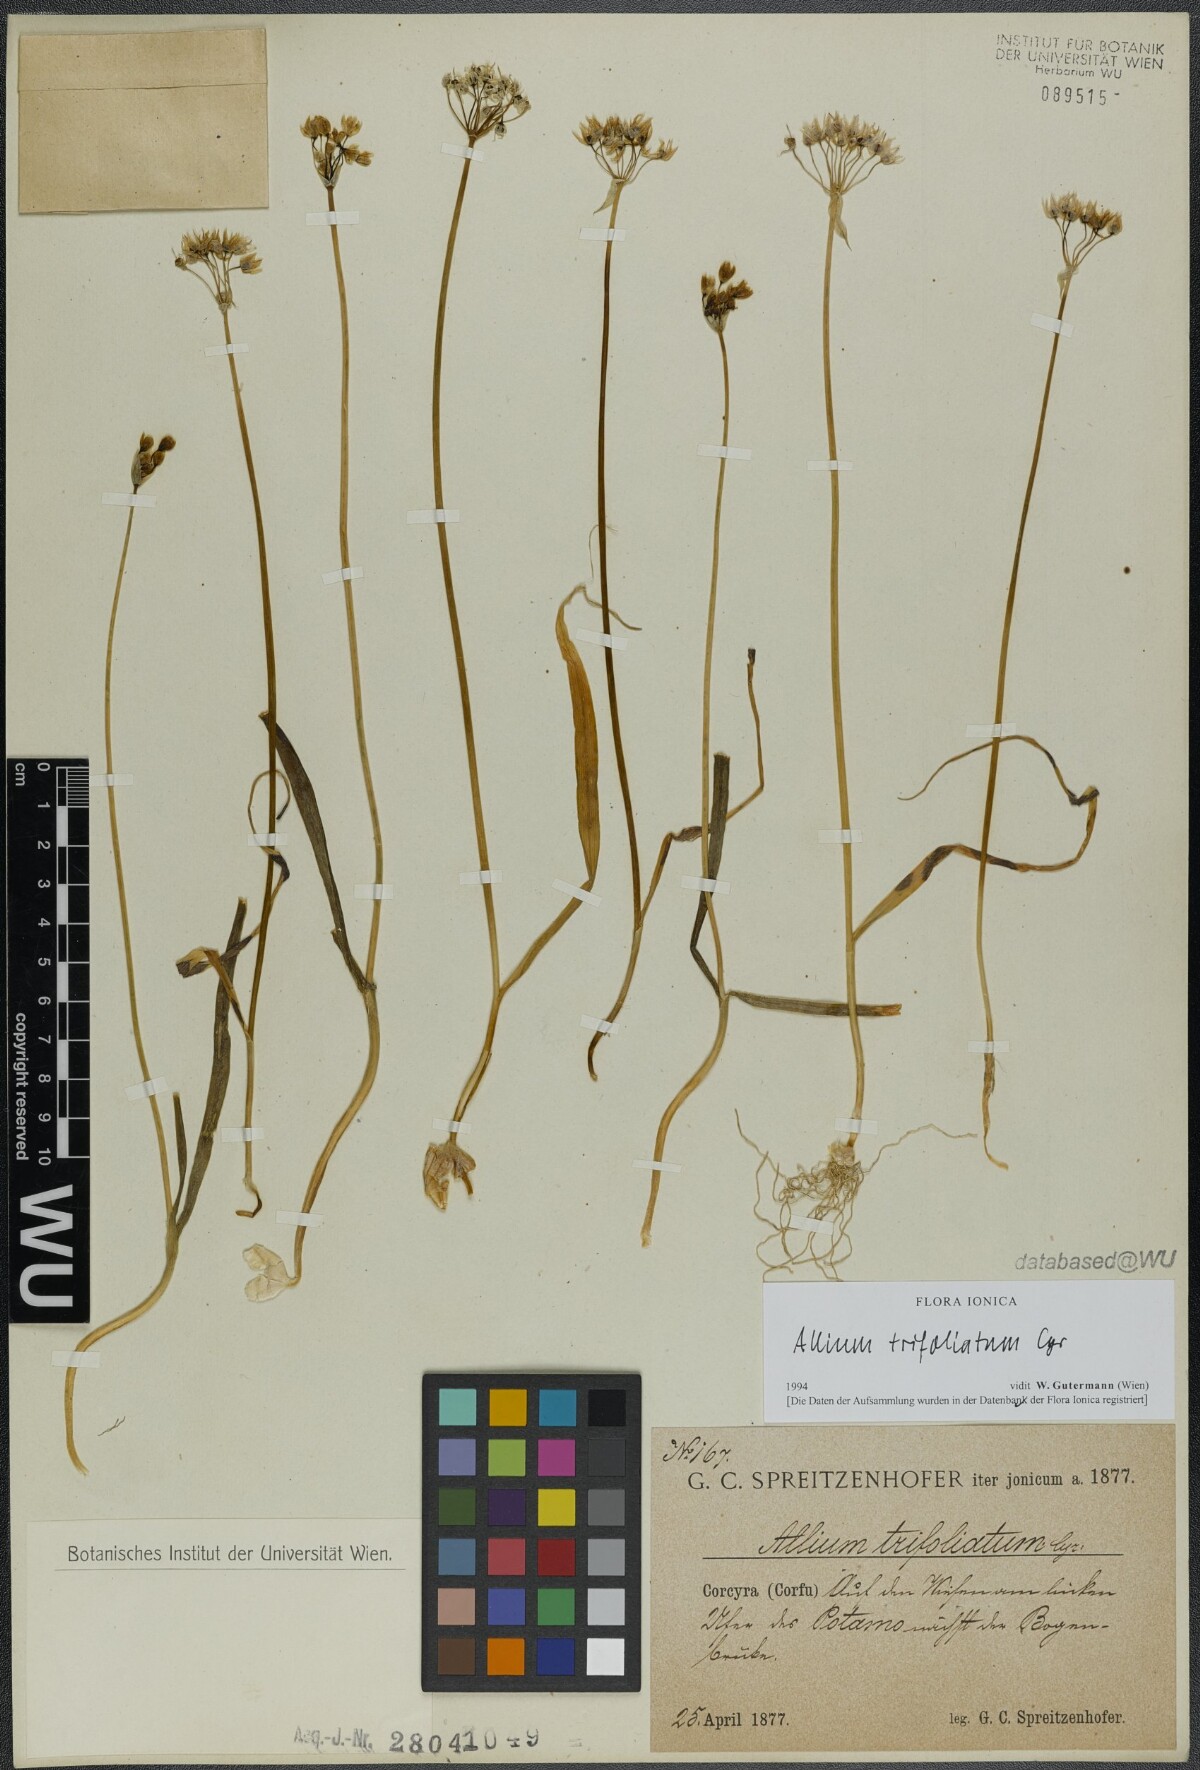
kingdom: Plantae
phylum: Tracheophyta
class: Liliopsida
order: Asparagales
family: Amaryllidaceae
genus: Allium
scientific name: Allium trifoliatum
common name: Pink garlic
